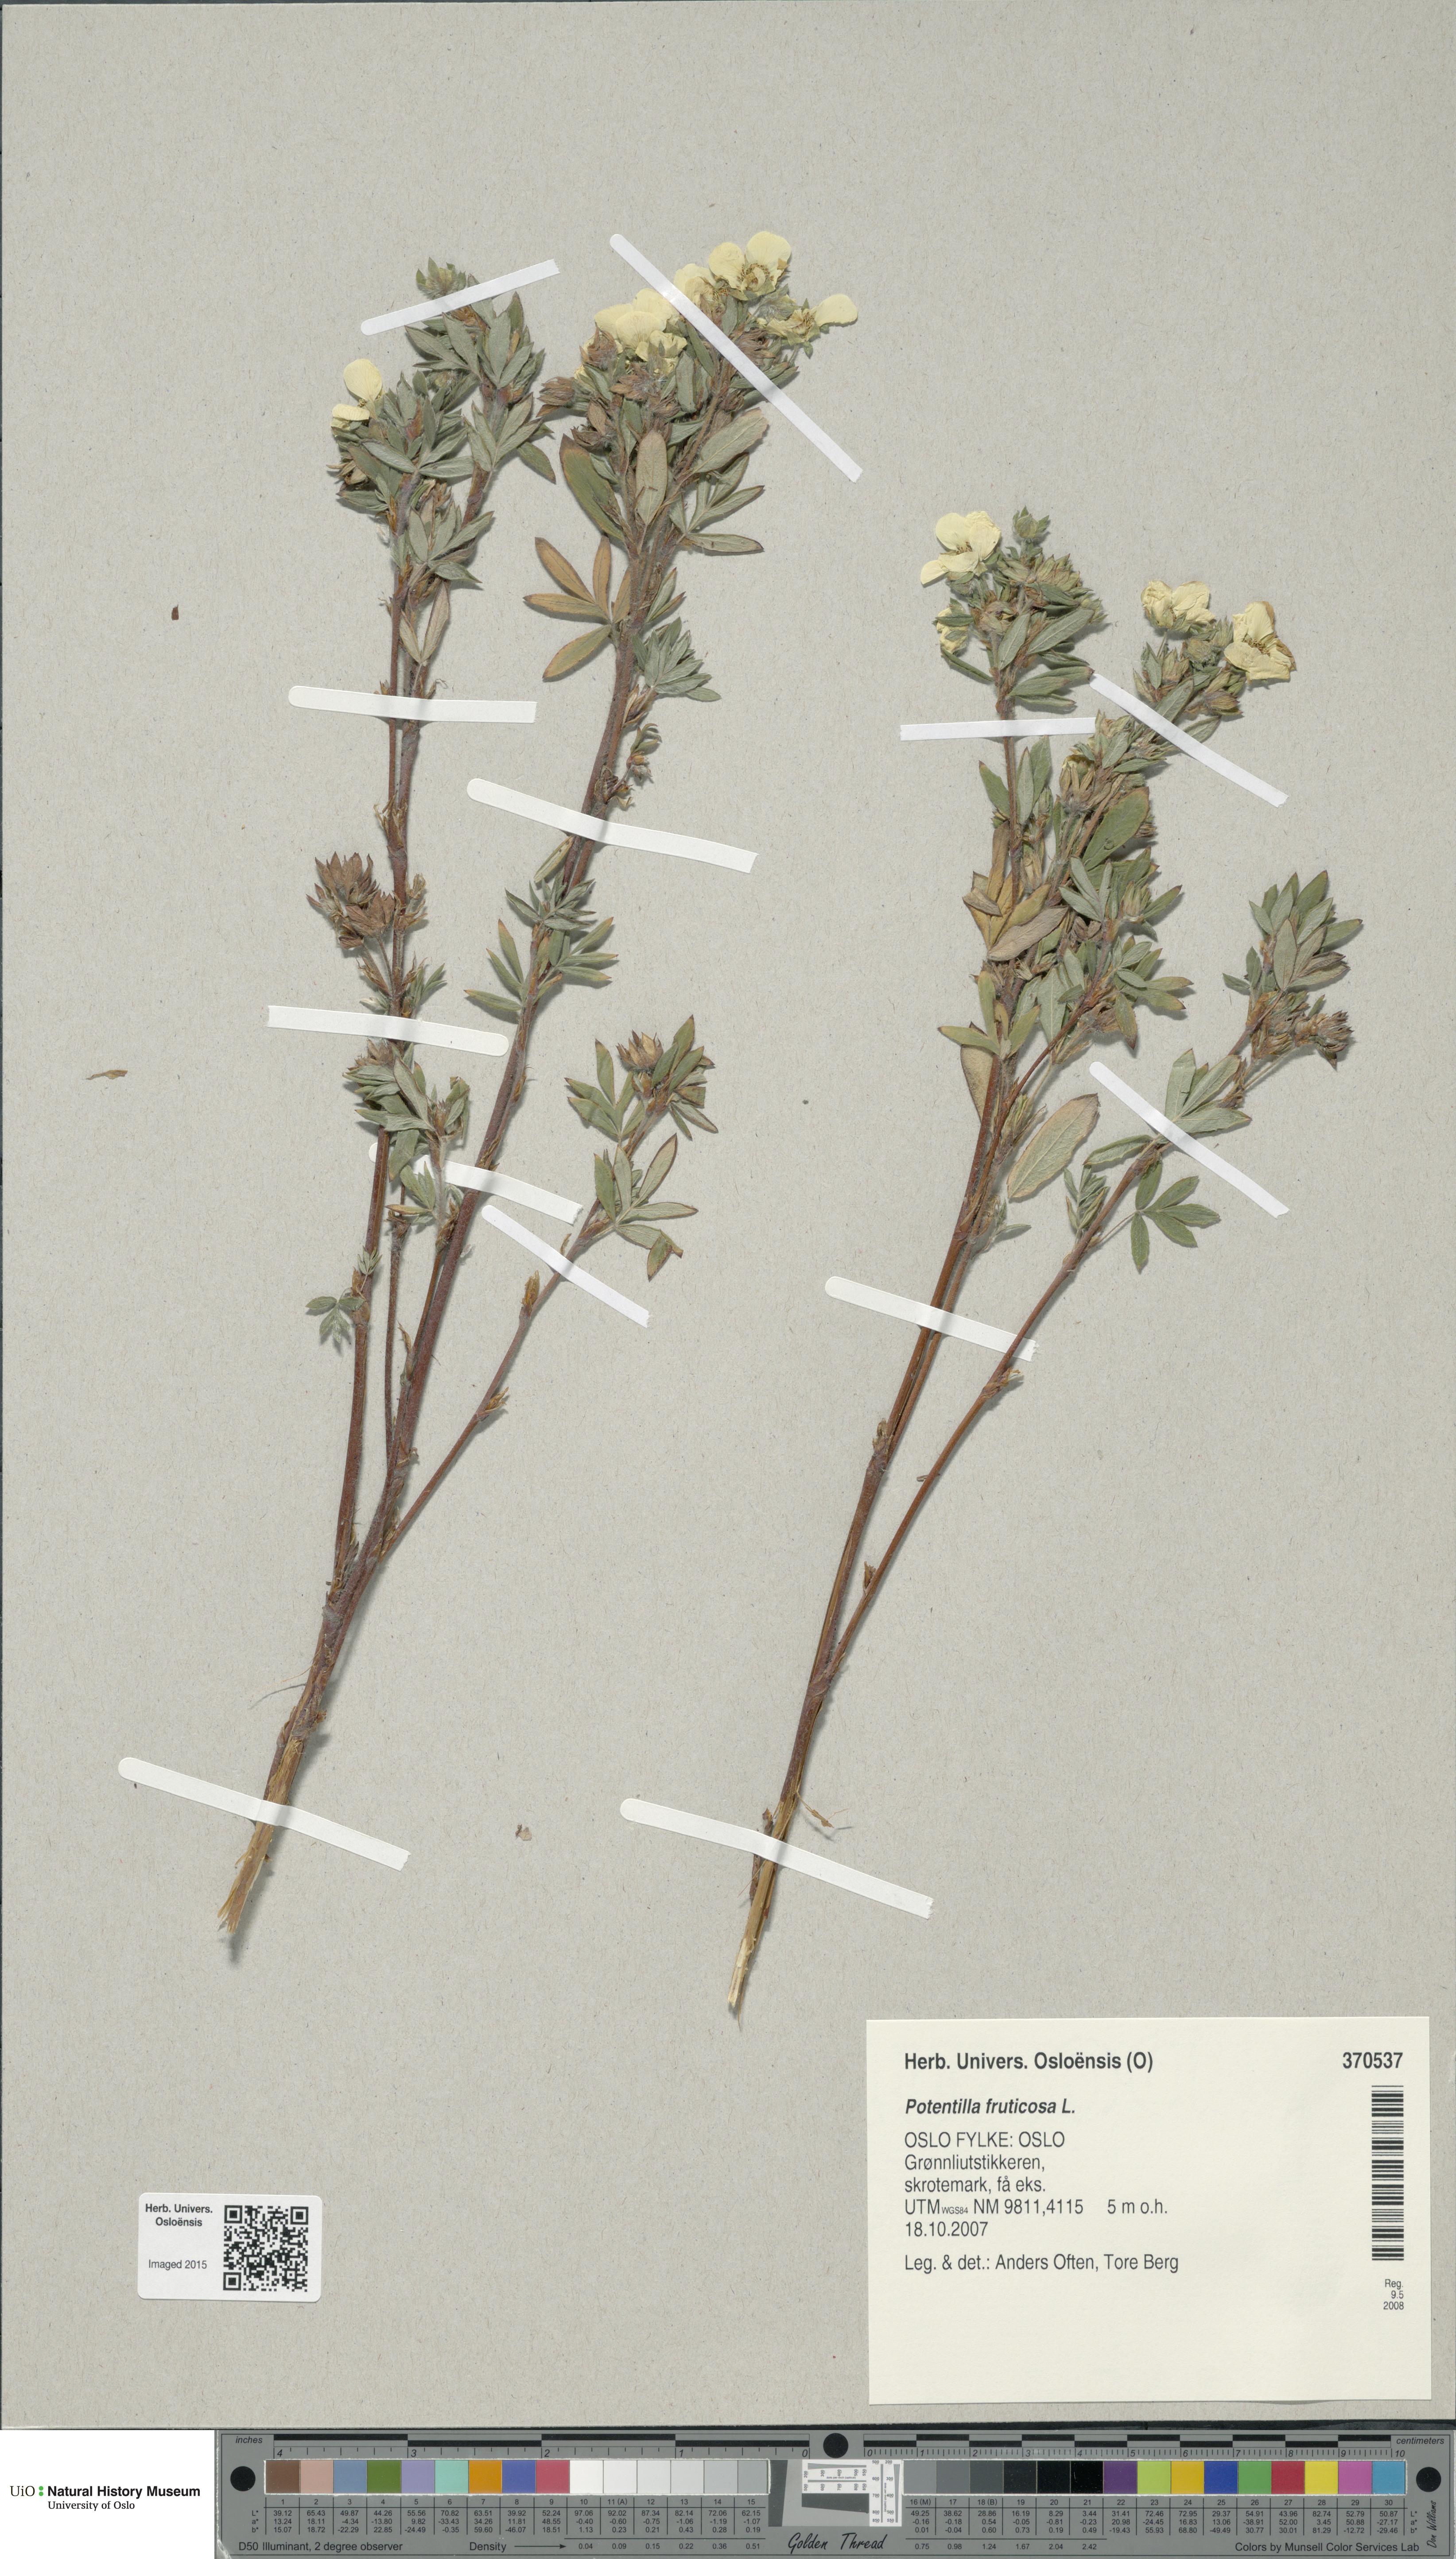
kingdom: Plantae
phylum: Tracheophyta
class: Magnoliopsida
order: Rosales
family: Rosaceae
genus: Dasiphora
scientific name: Dasiphora fruticosa
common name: Shrubby cinquefoil
